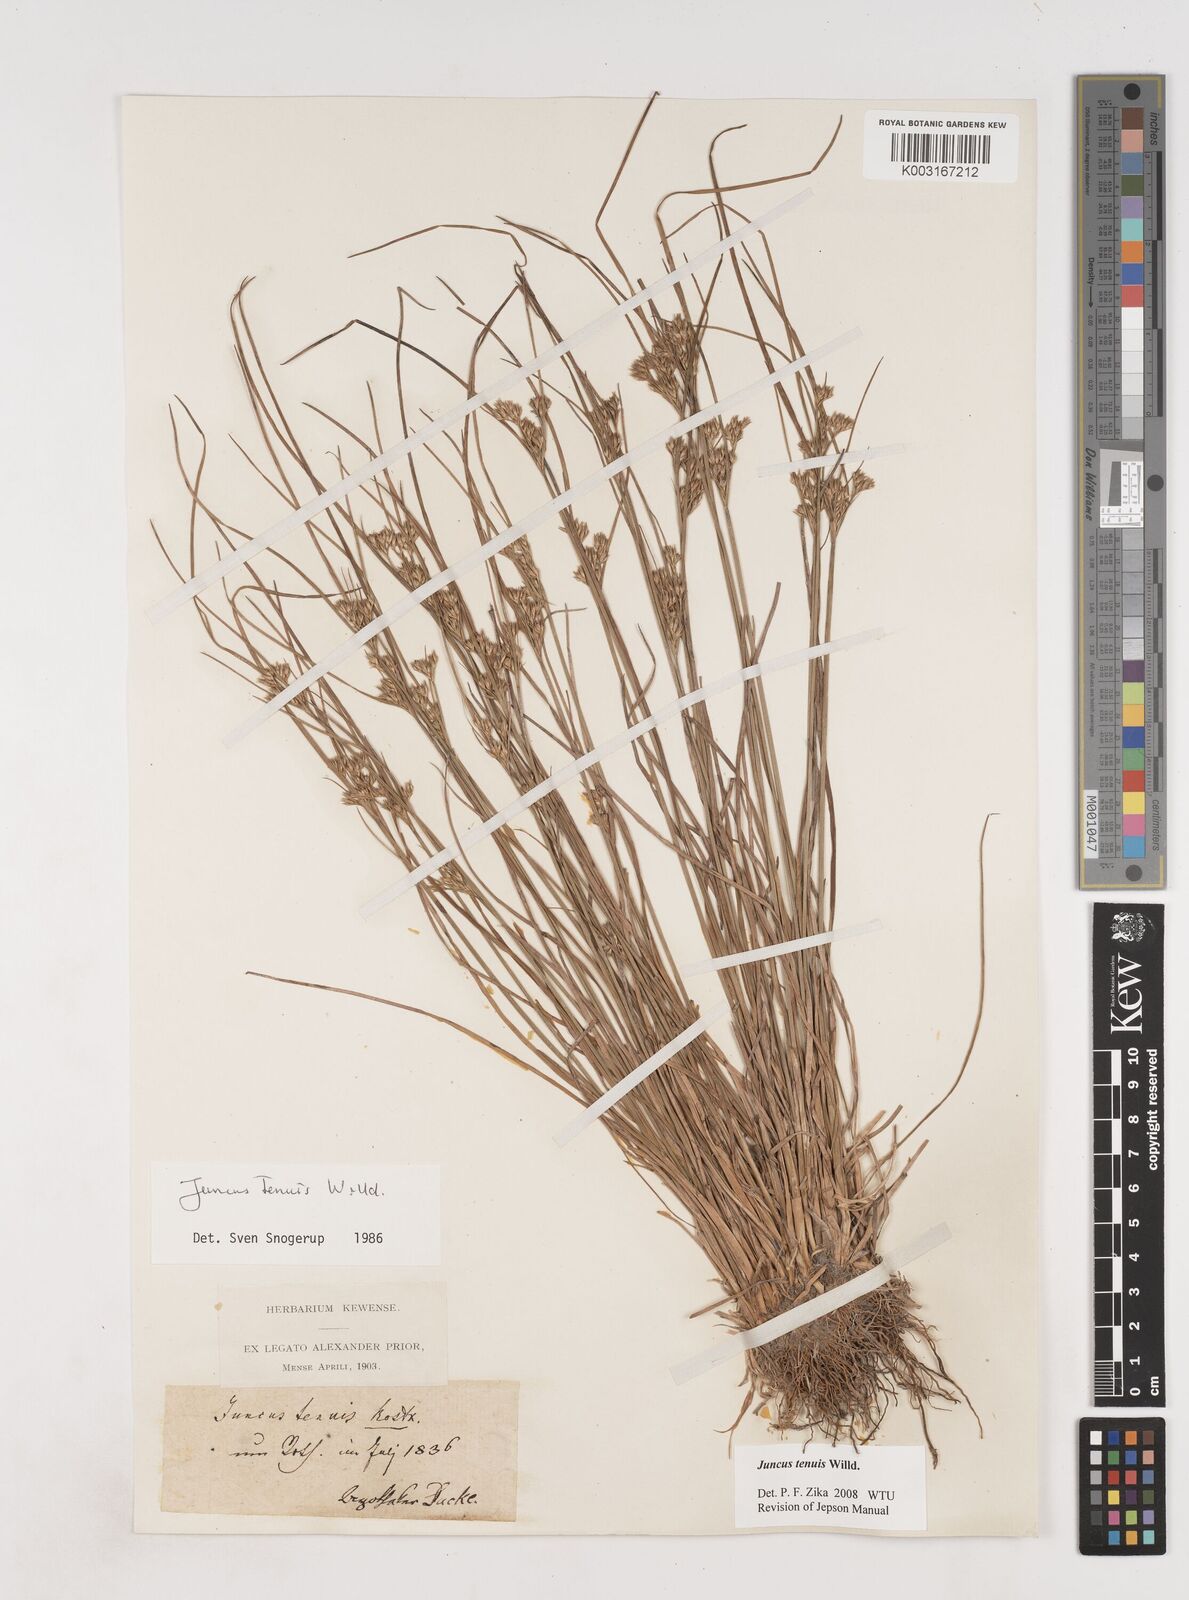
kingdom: Plantae
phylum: Tracheophyta
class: Liliopsida
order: Poales
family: Juncaceae
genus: Juncus
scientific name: Juncus tenuis
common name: Slender rush
